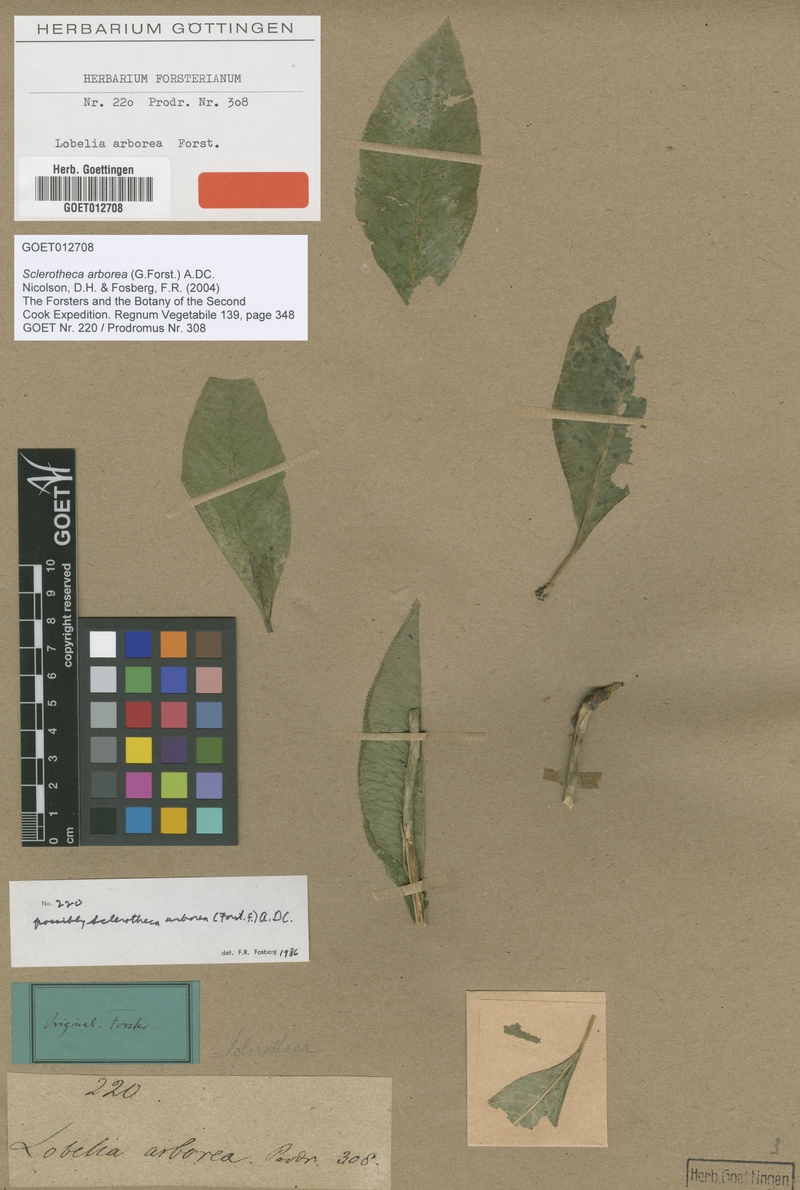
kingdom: Plantae
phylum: Tracheophyta
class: Magnoliopsida
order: Asterales
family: Campanulaceae
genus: Sclerotheca
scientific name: Sclerotheca arborea
